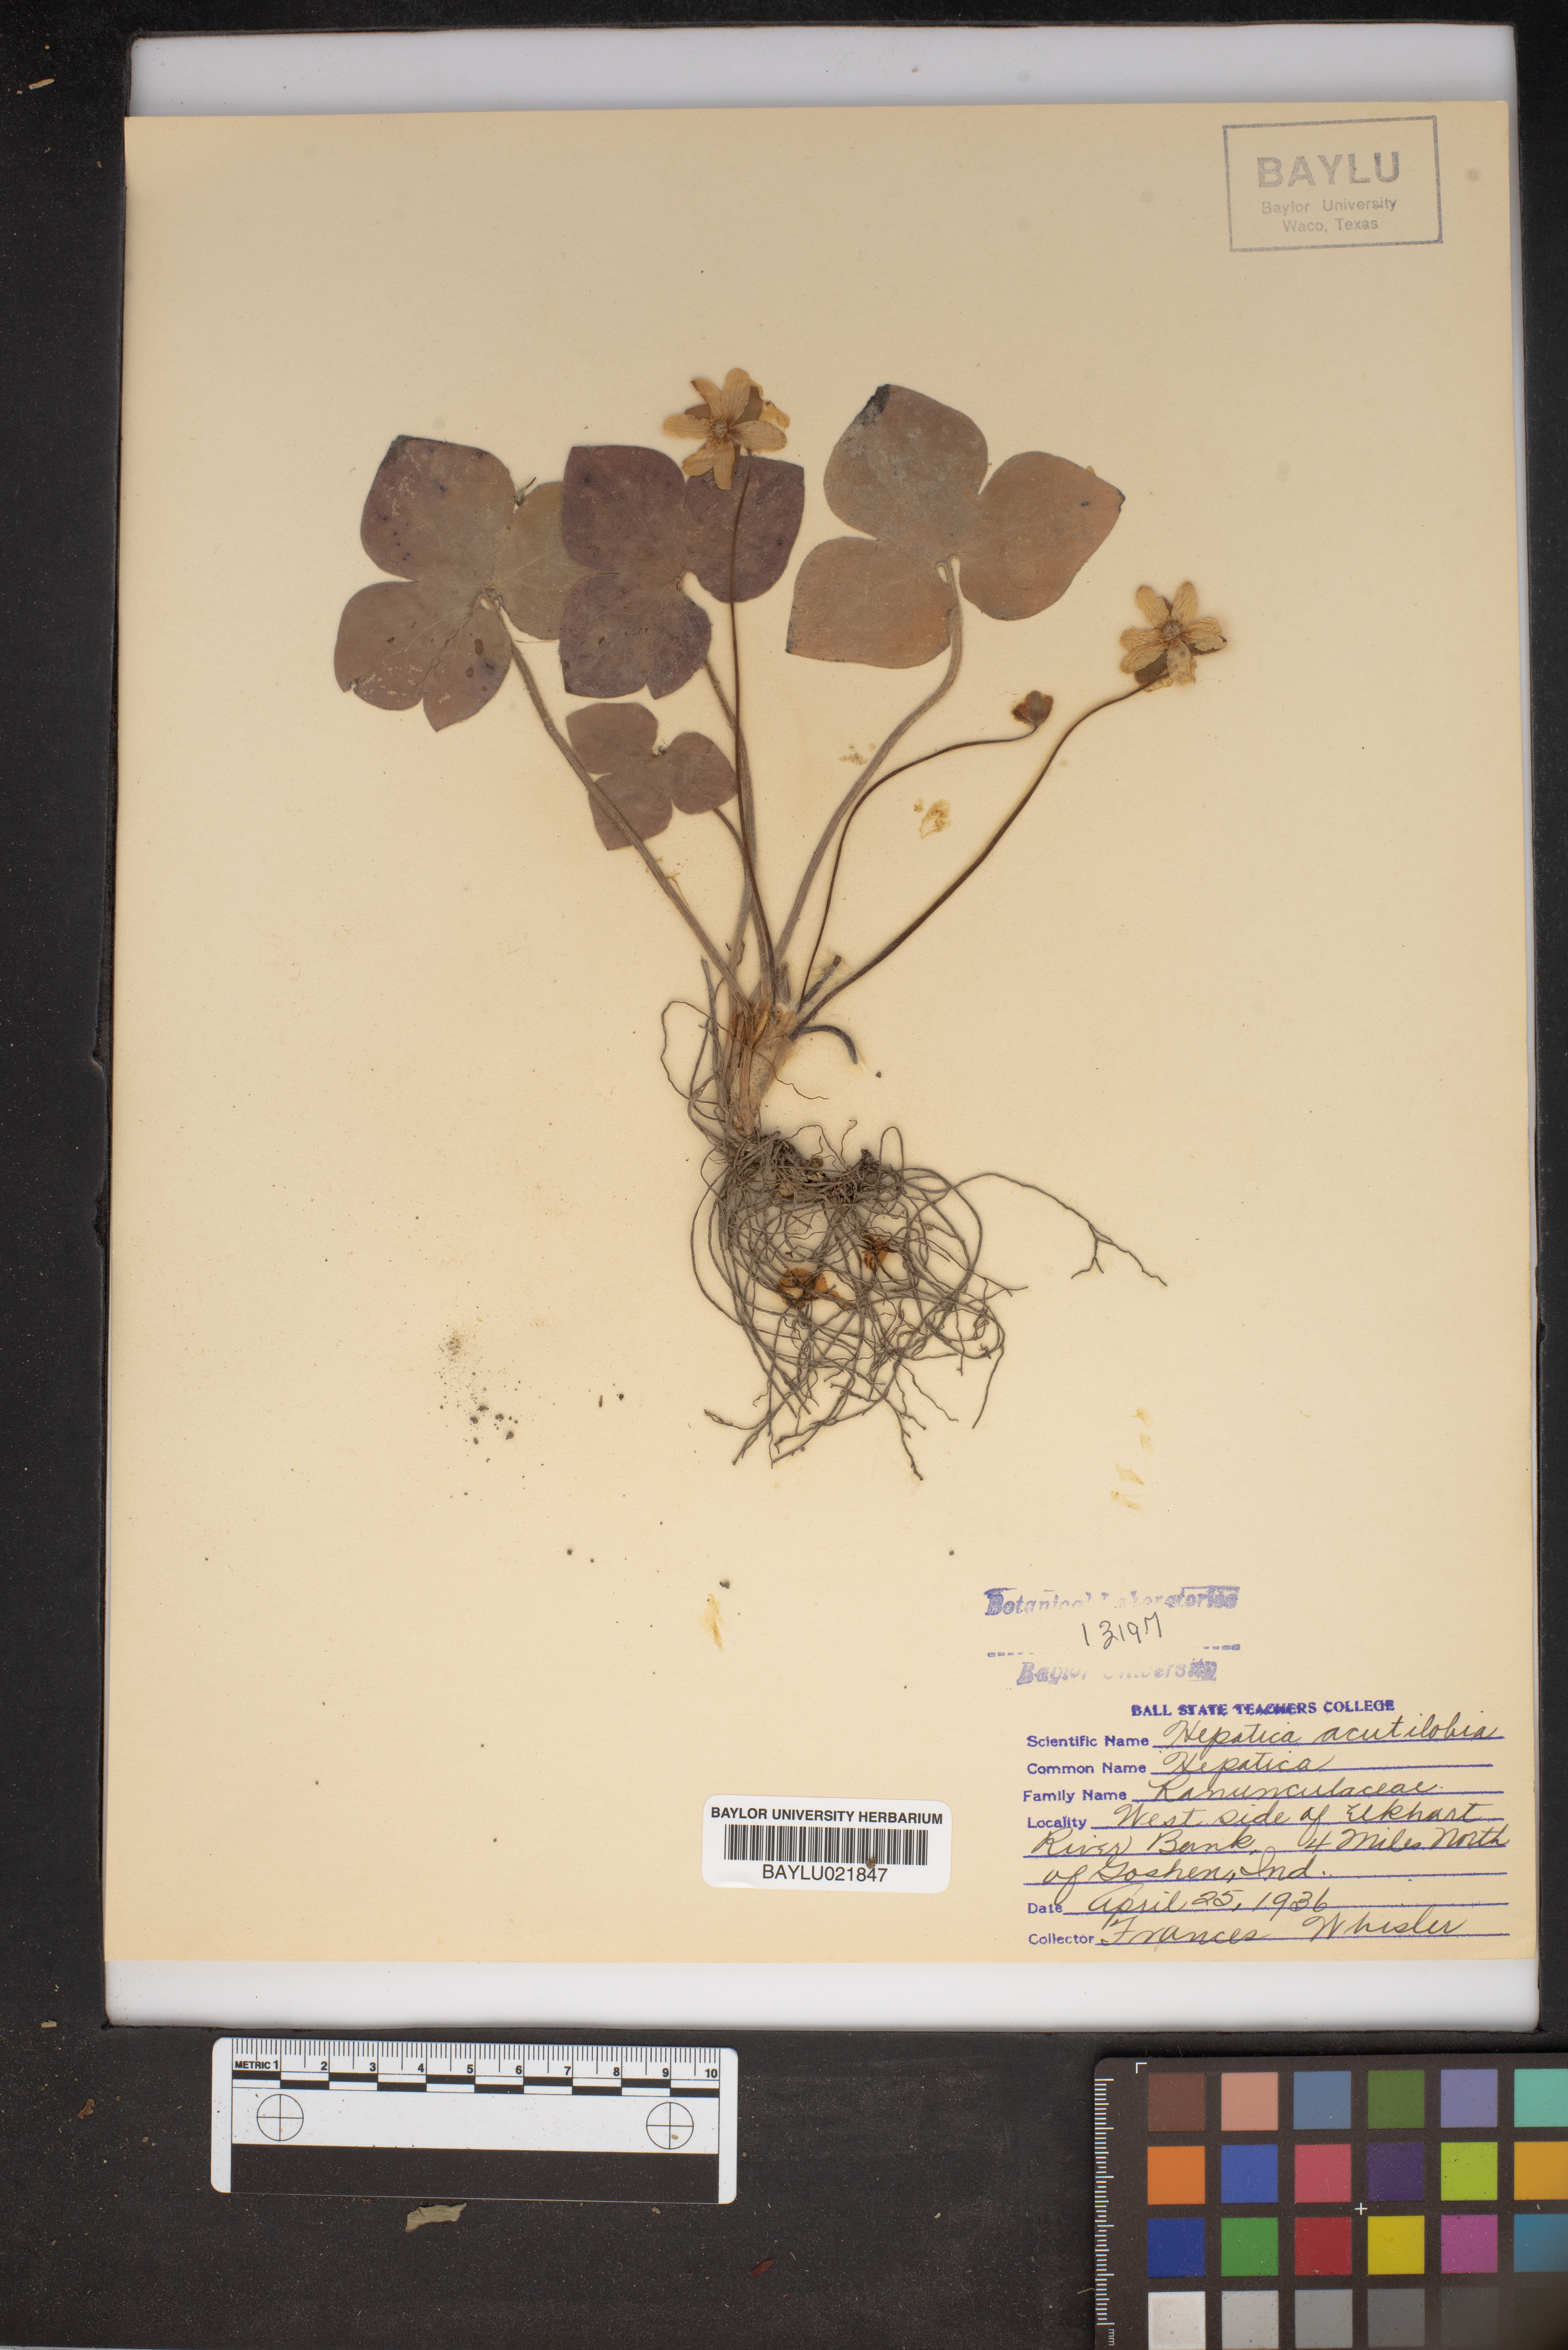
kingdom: Plantae
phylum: Tracheophyta
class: Magnoliopsida
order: Ranunculales
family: Ranunculaceae
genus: Hepatica
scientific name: Hepatica acutiloba
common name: Sharp-lobed hepatica
